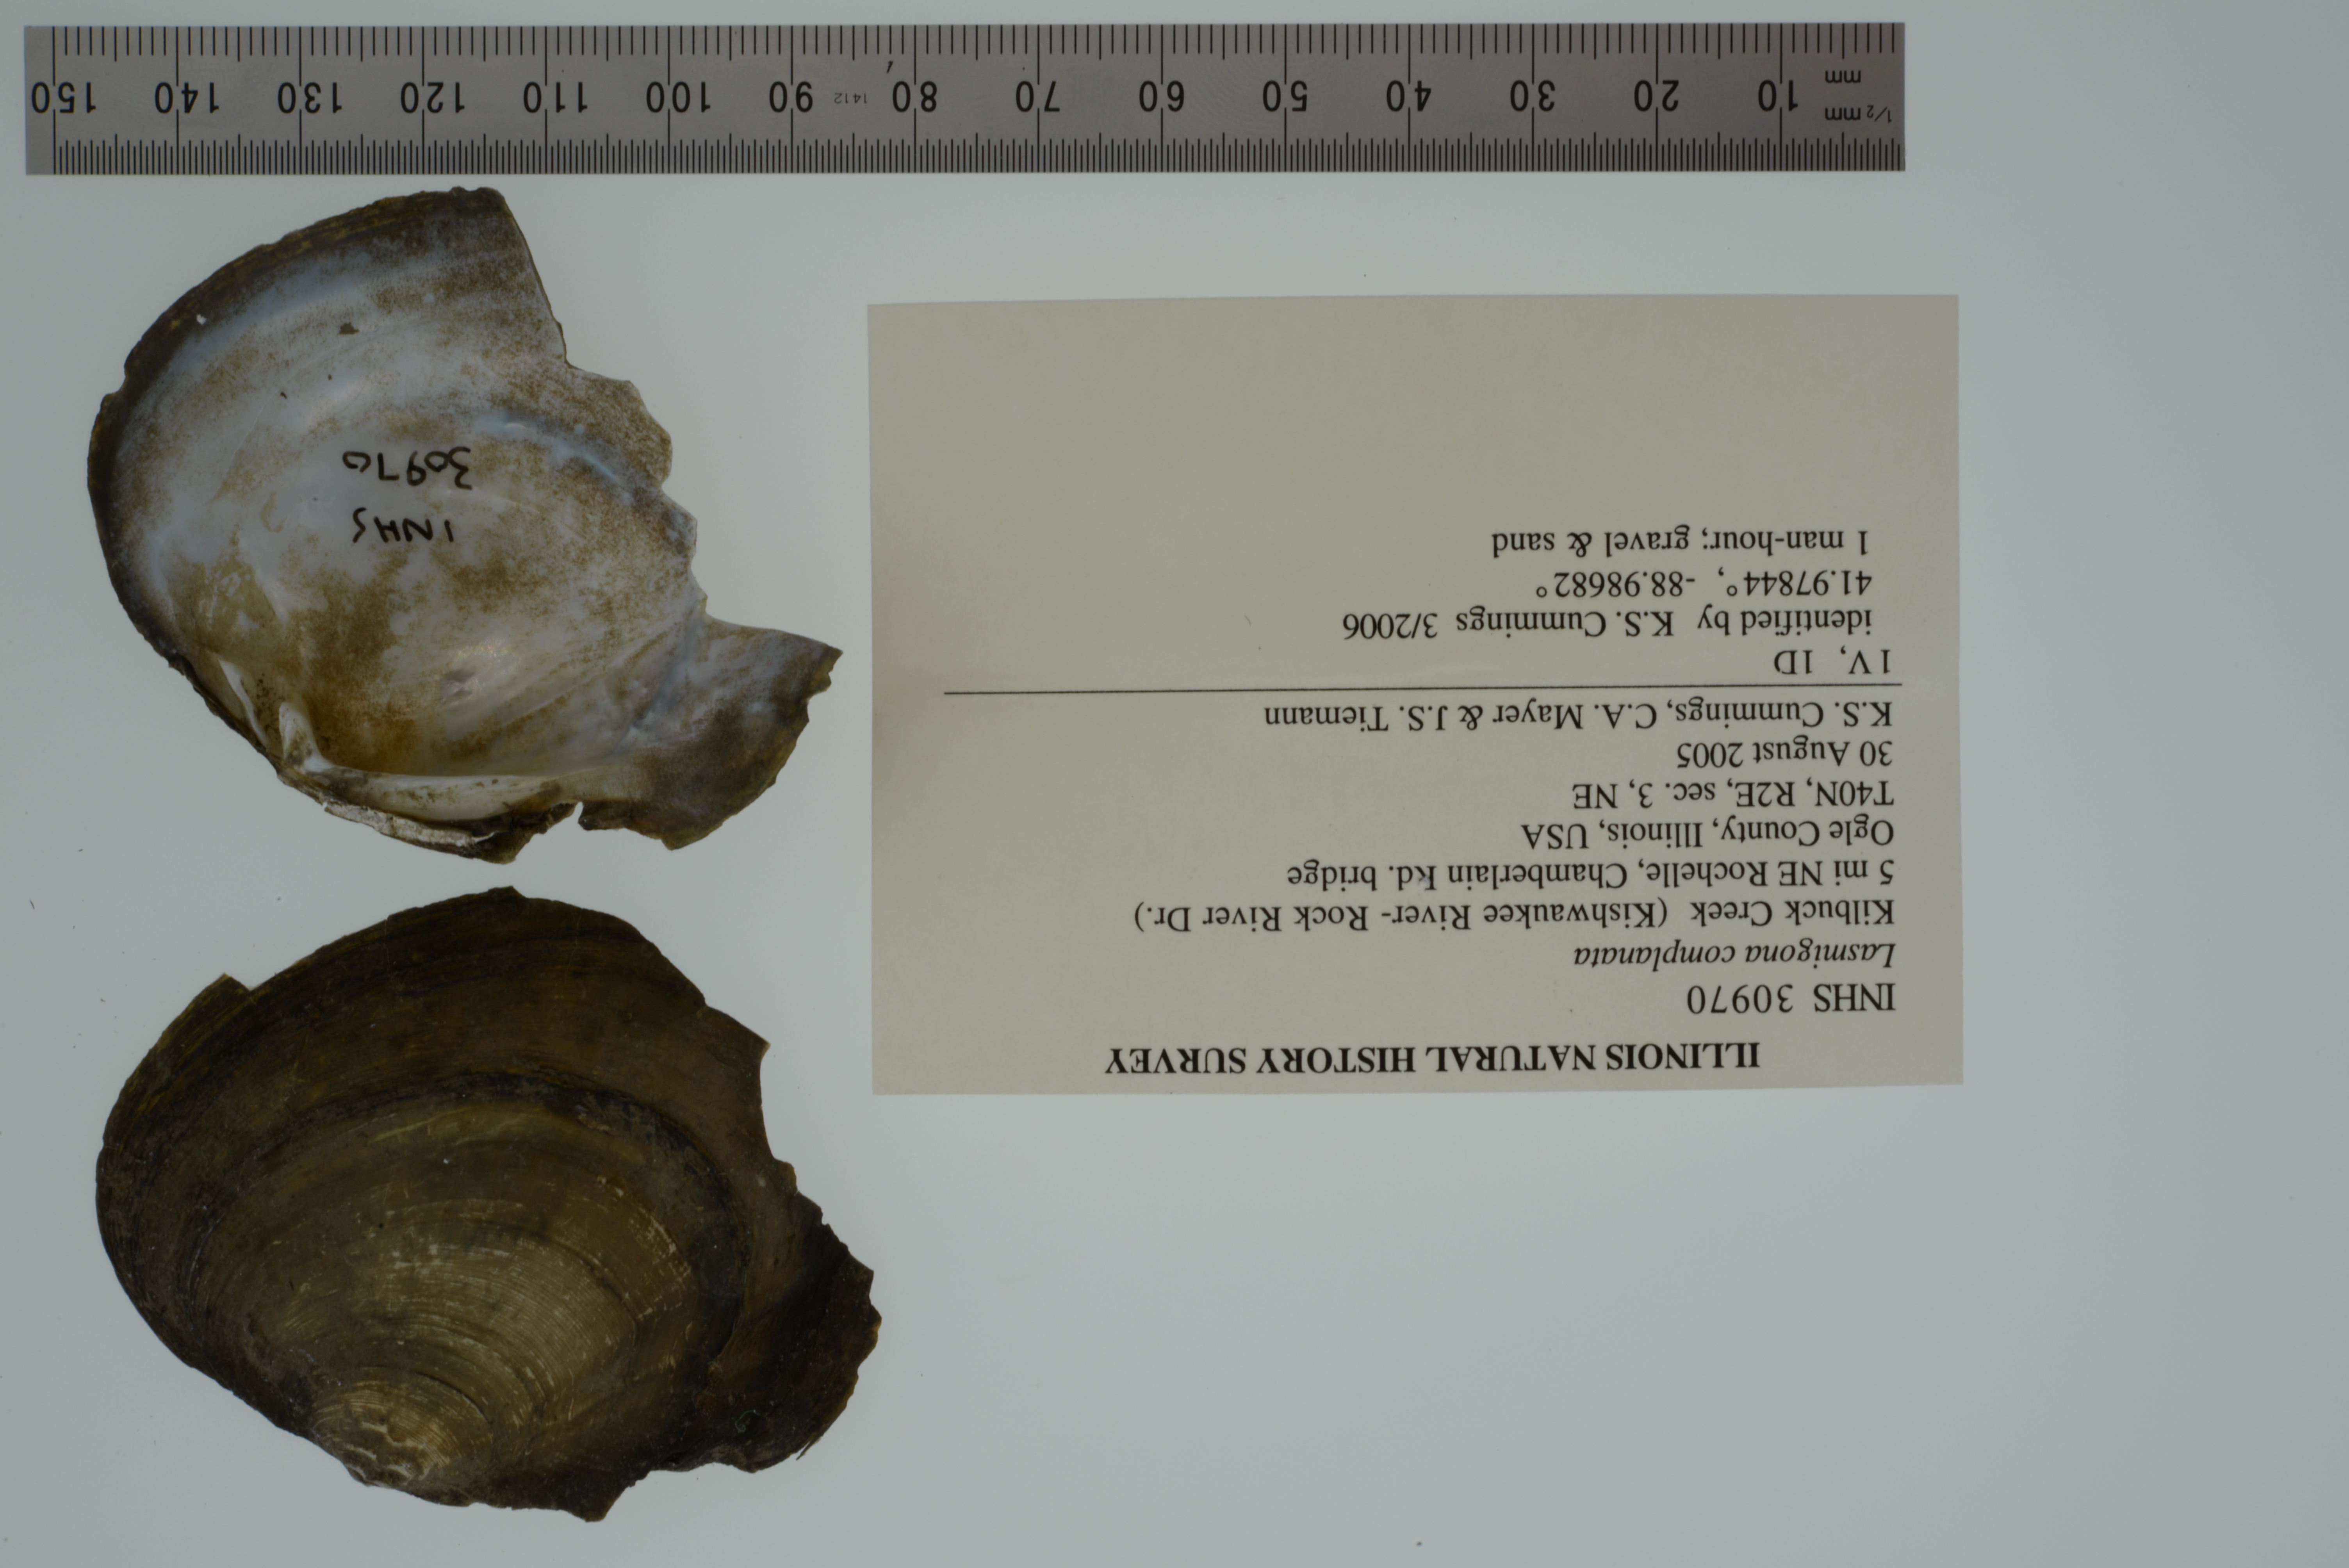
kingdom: Animalia
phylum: Mollusca
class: Bivalvia
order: Unionida
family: Unionidae
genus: Lasmigona
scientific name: Lasmigona complanata
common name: White heelsplitter
